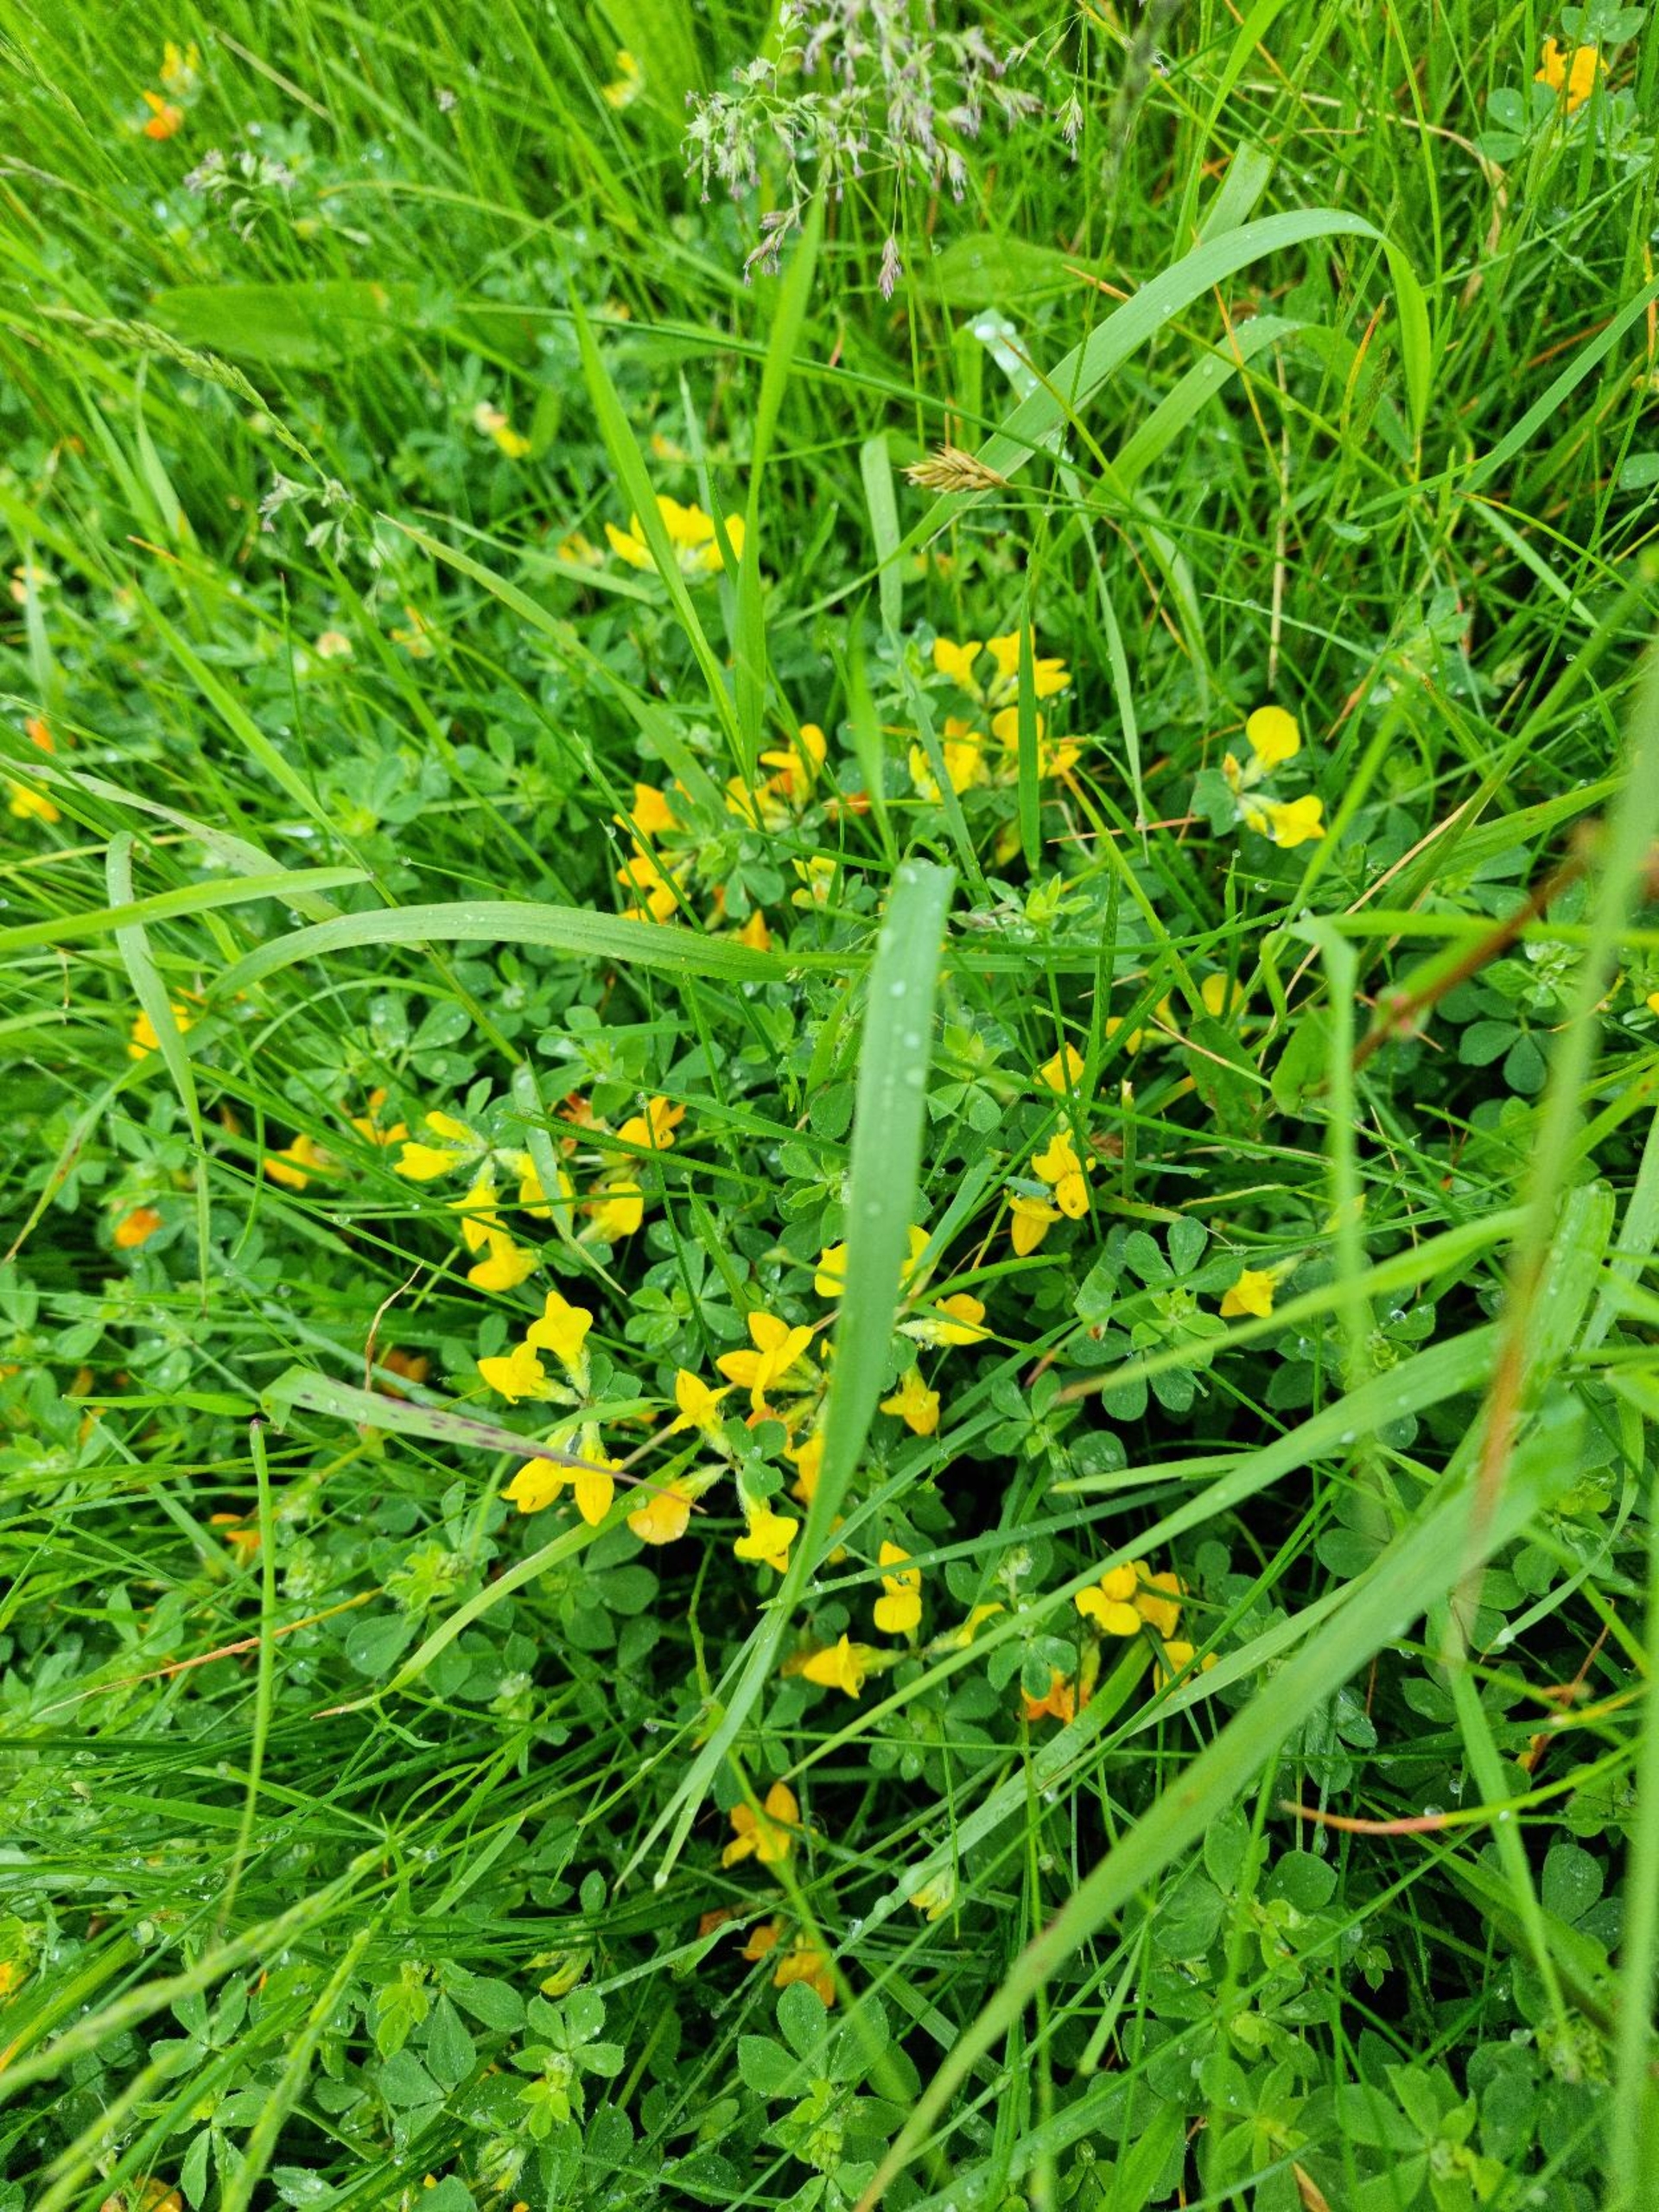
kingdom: Plantae
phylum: Tracheophyta
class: Magnoliopsida
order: Fabales
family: Fabaceae
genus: Lotus
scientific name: Lotus corniculatus
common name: Almindelig kællingetand
